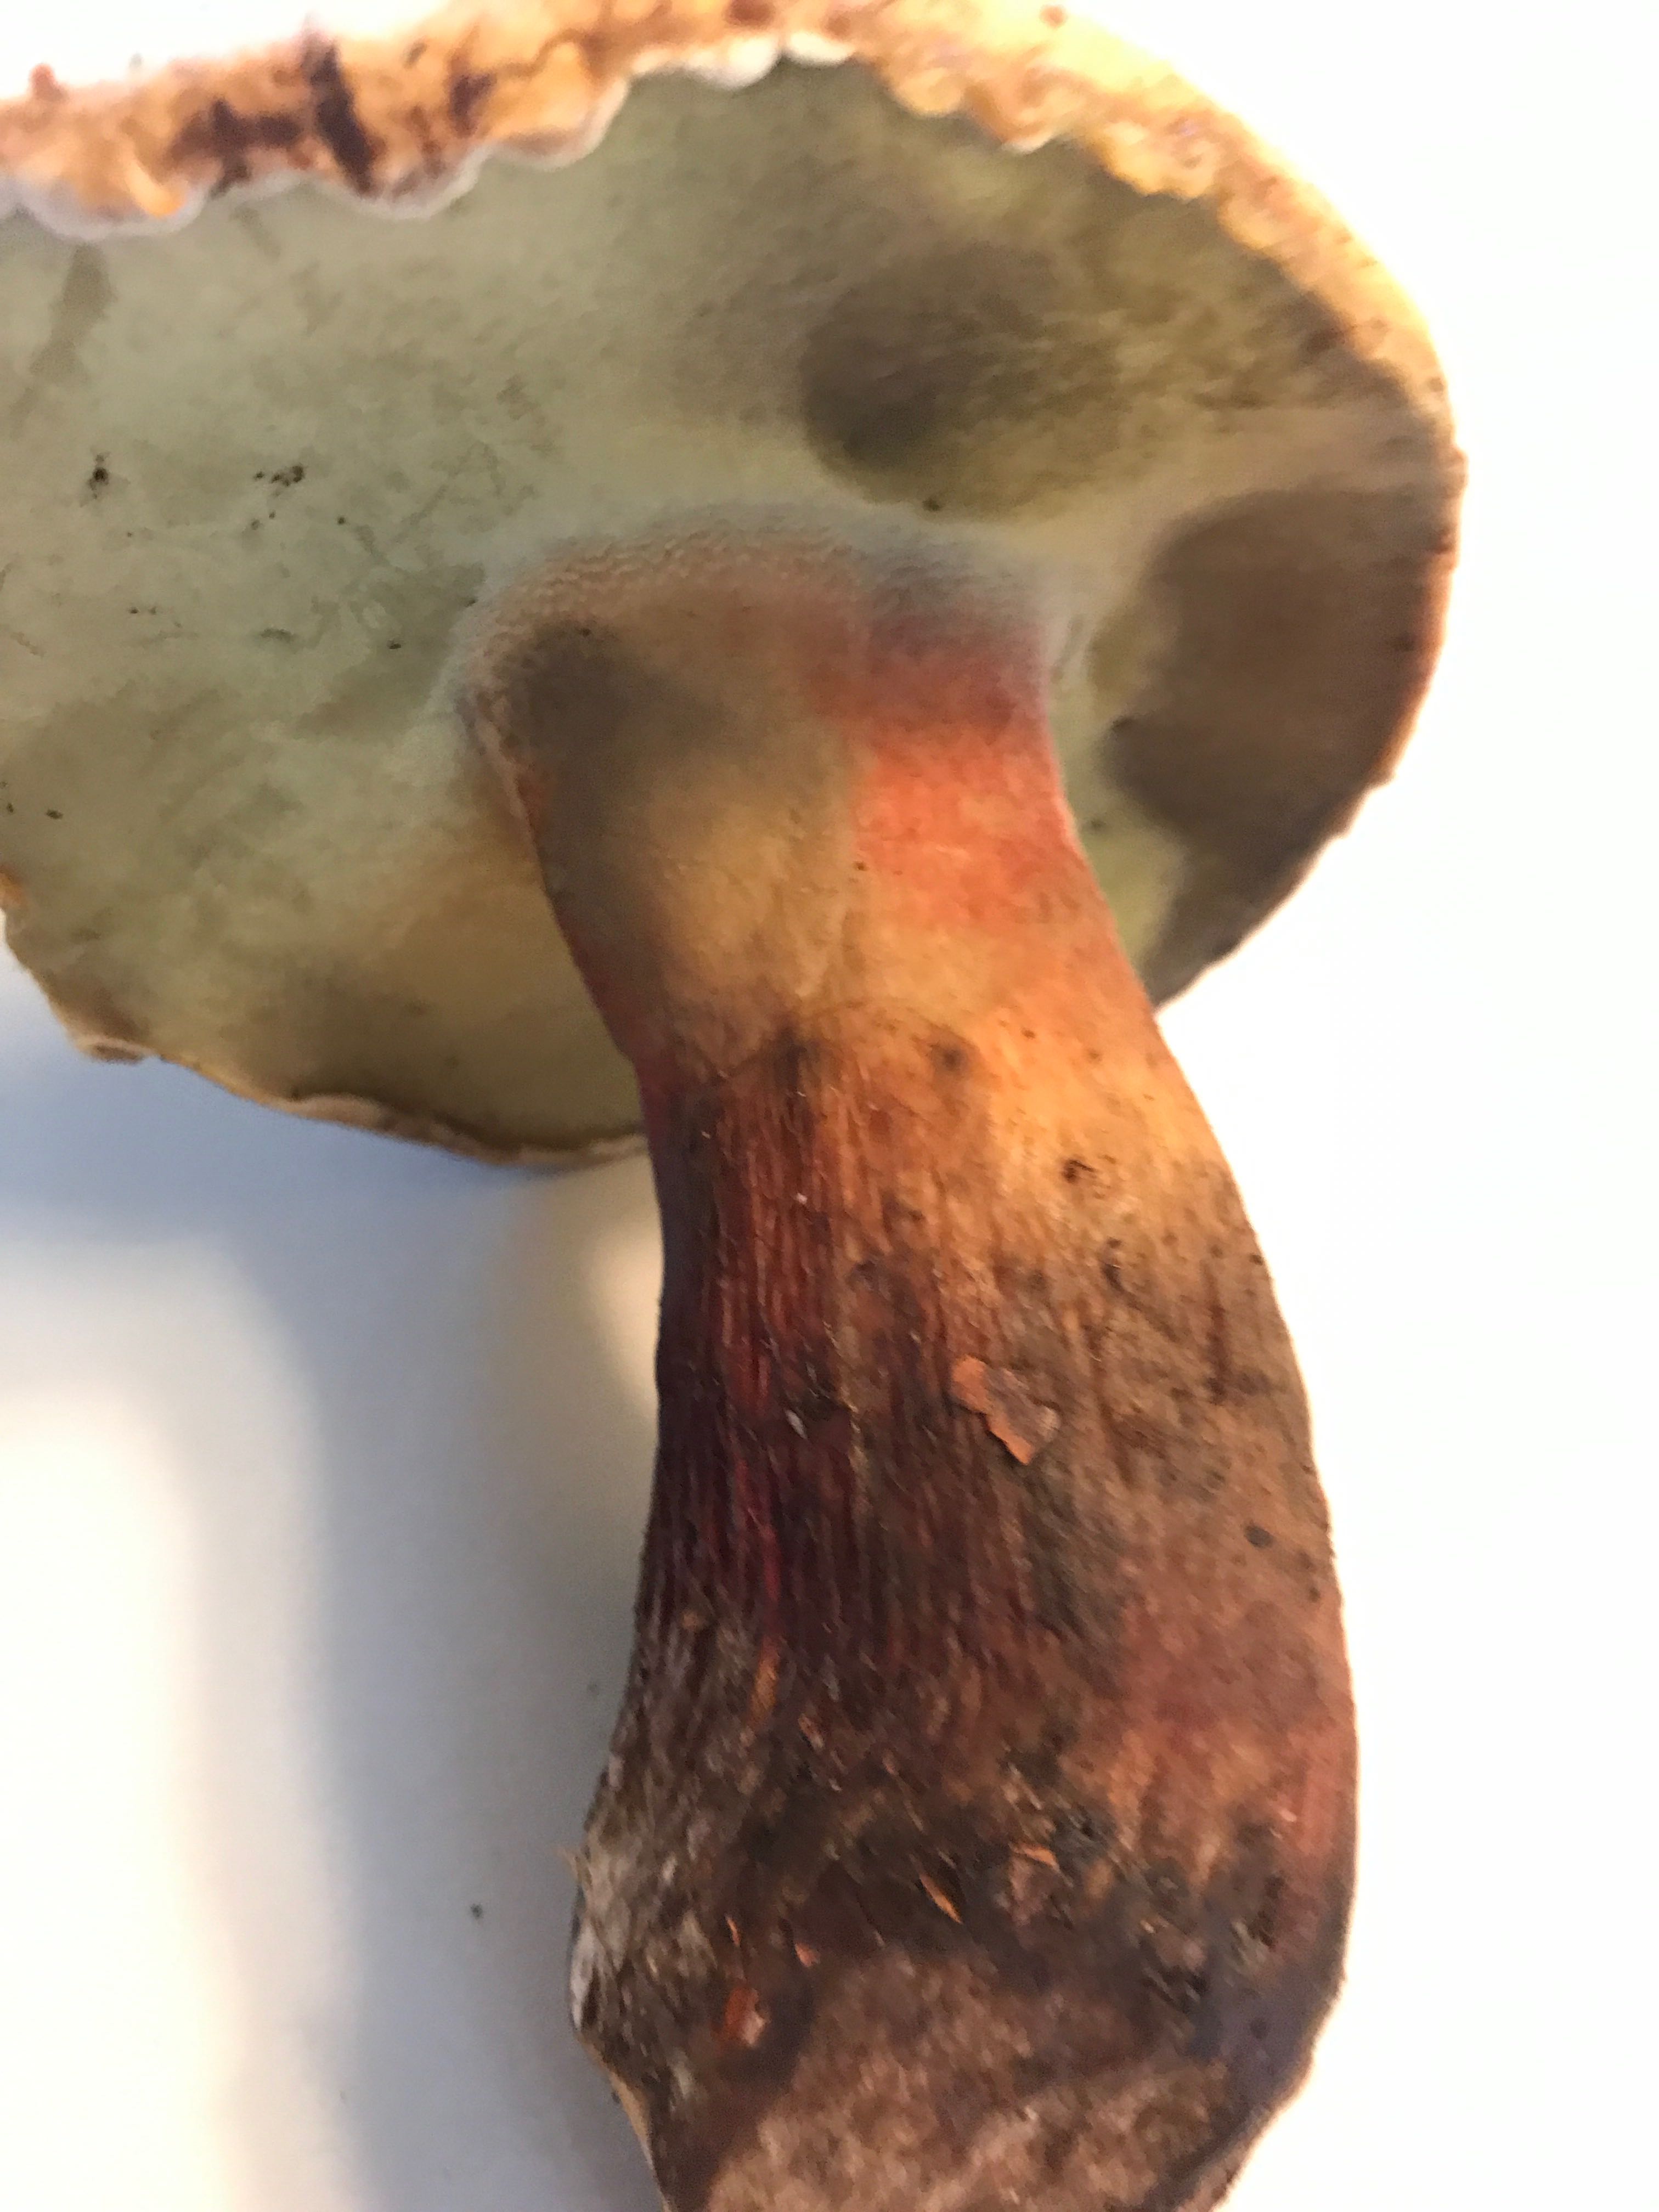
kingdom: Fungi
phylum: Basidiomycota
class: Agaricomycetes
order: Boletales
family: Boletaceae
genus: Caloboletus
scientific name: Caloboletus calopus
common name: skønfodet rørhat
